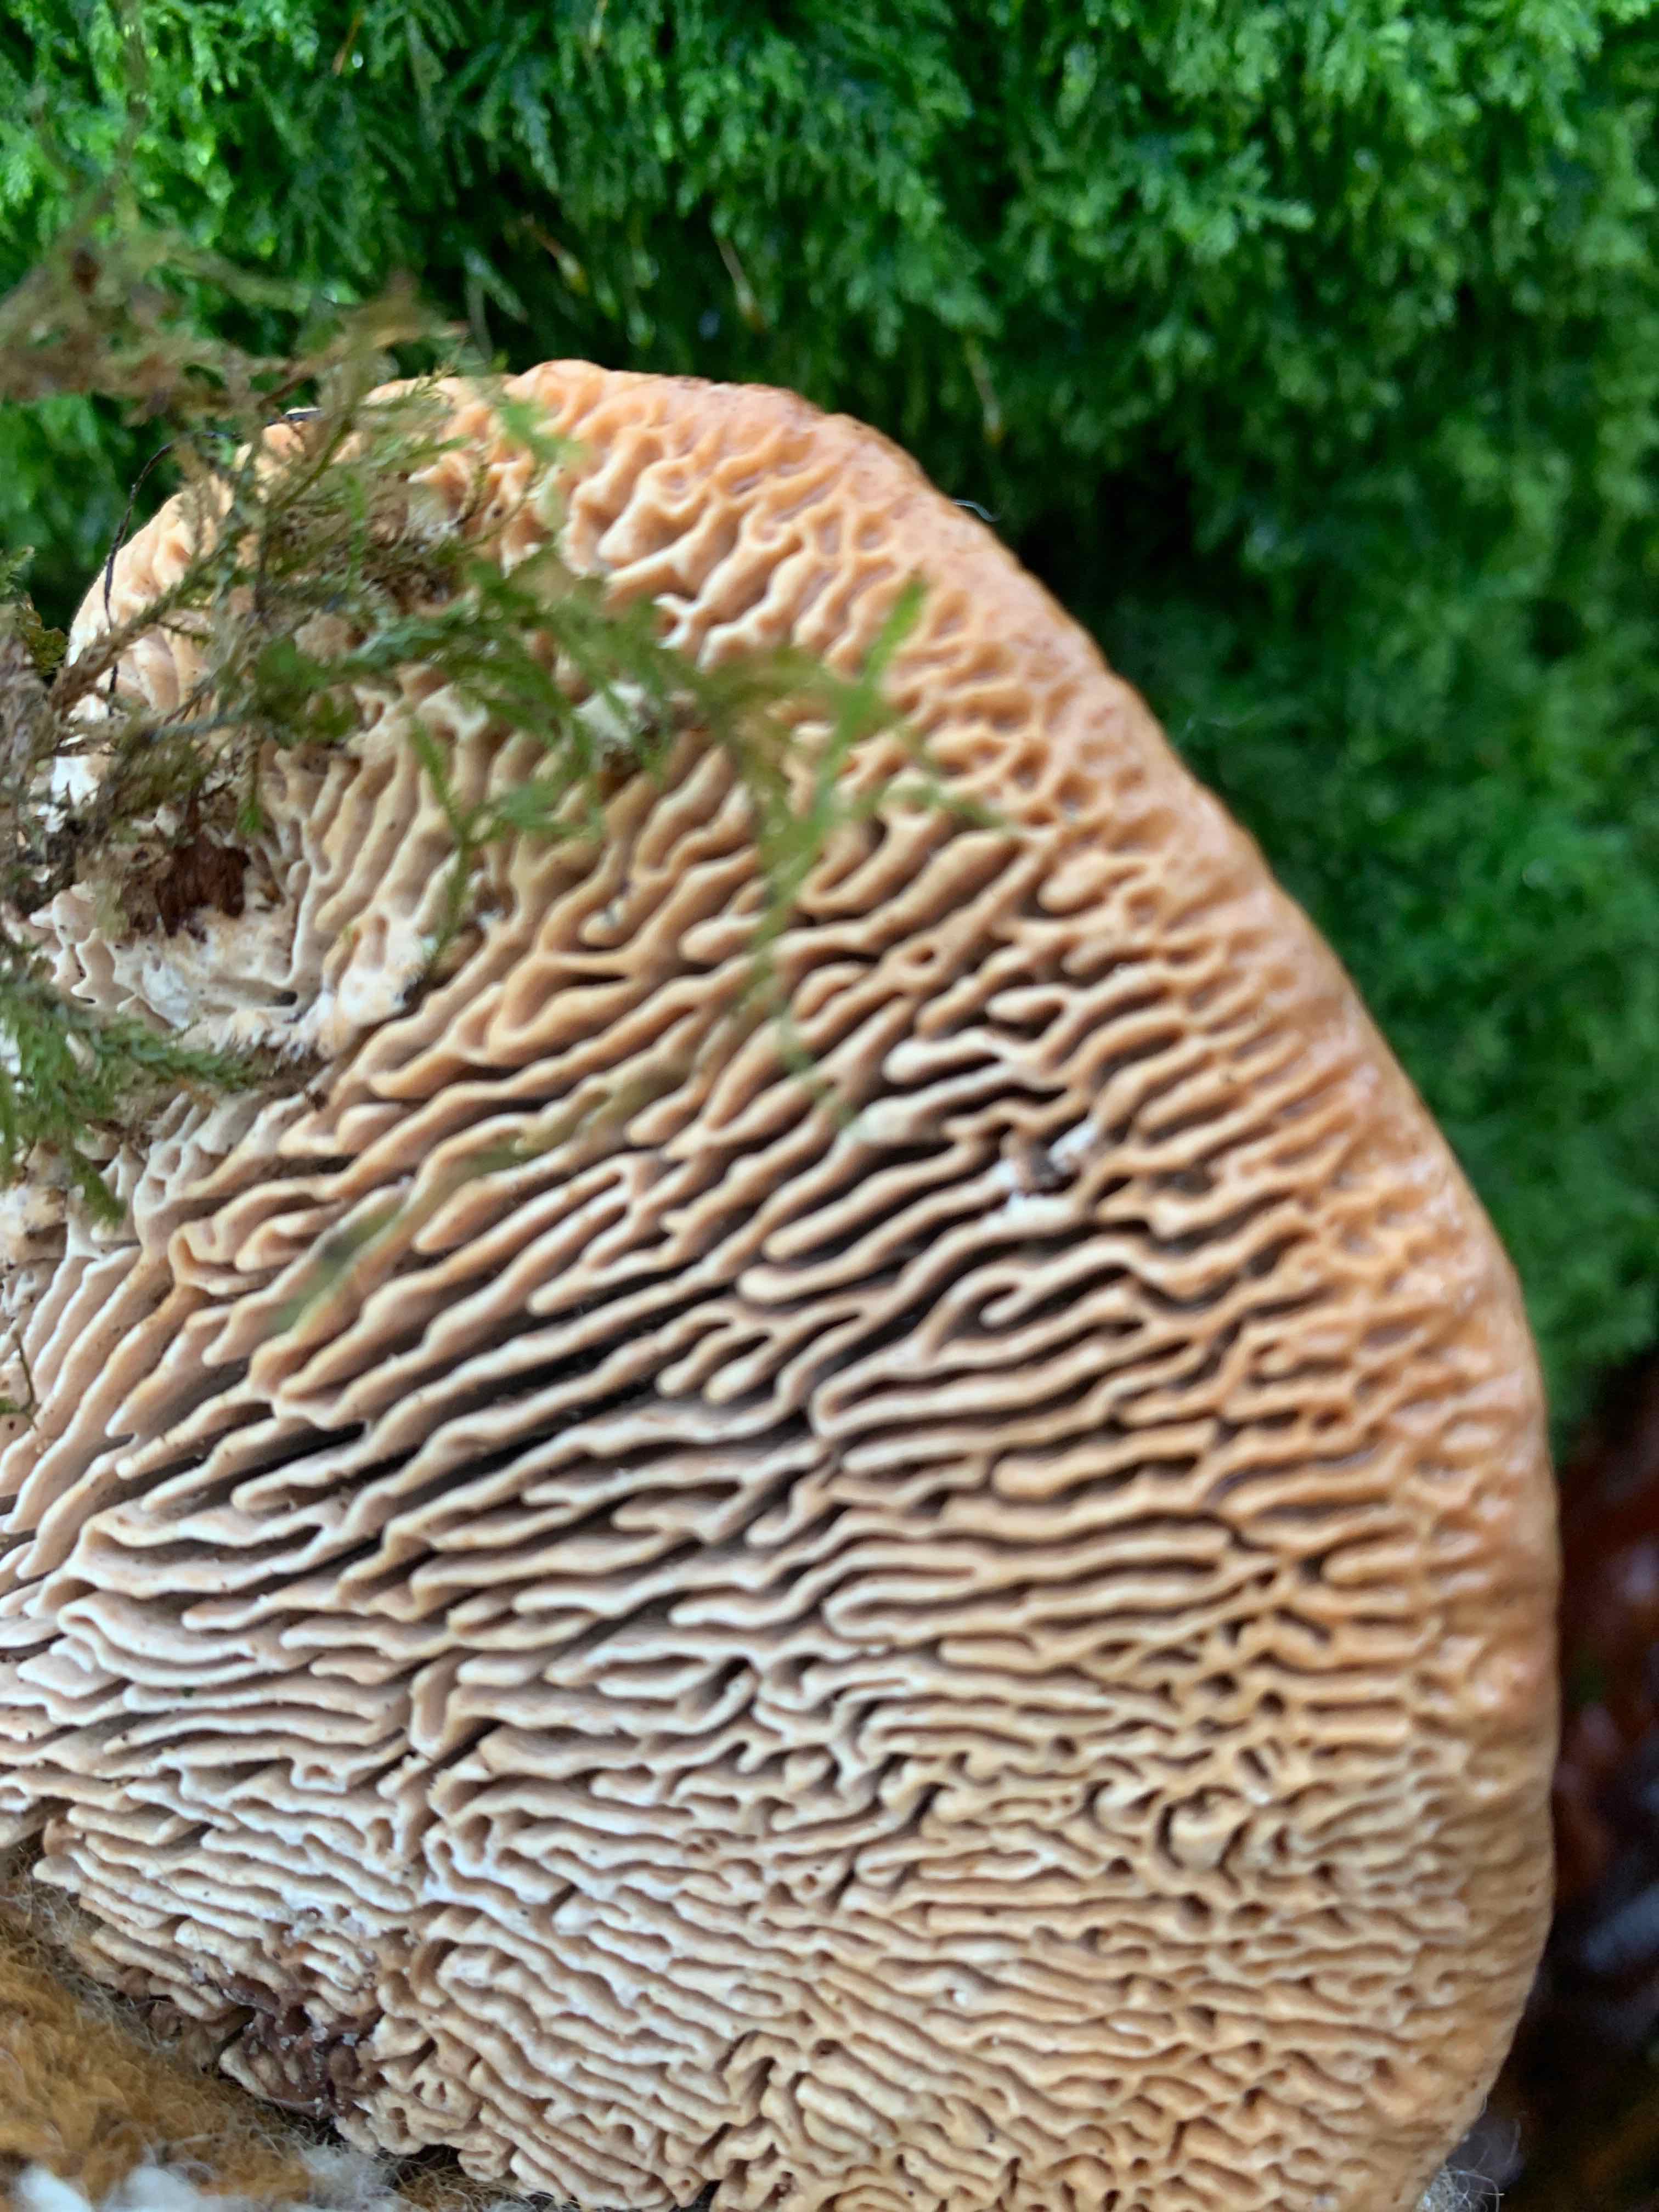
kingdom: Fungi
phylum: Basidiomycota
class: Agaricomycetes
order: Polyporales
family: Fomitopsidaceae
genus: Daedalea
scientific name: Daedalea quercina
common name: ege-labyrintsvamp
